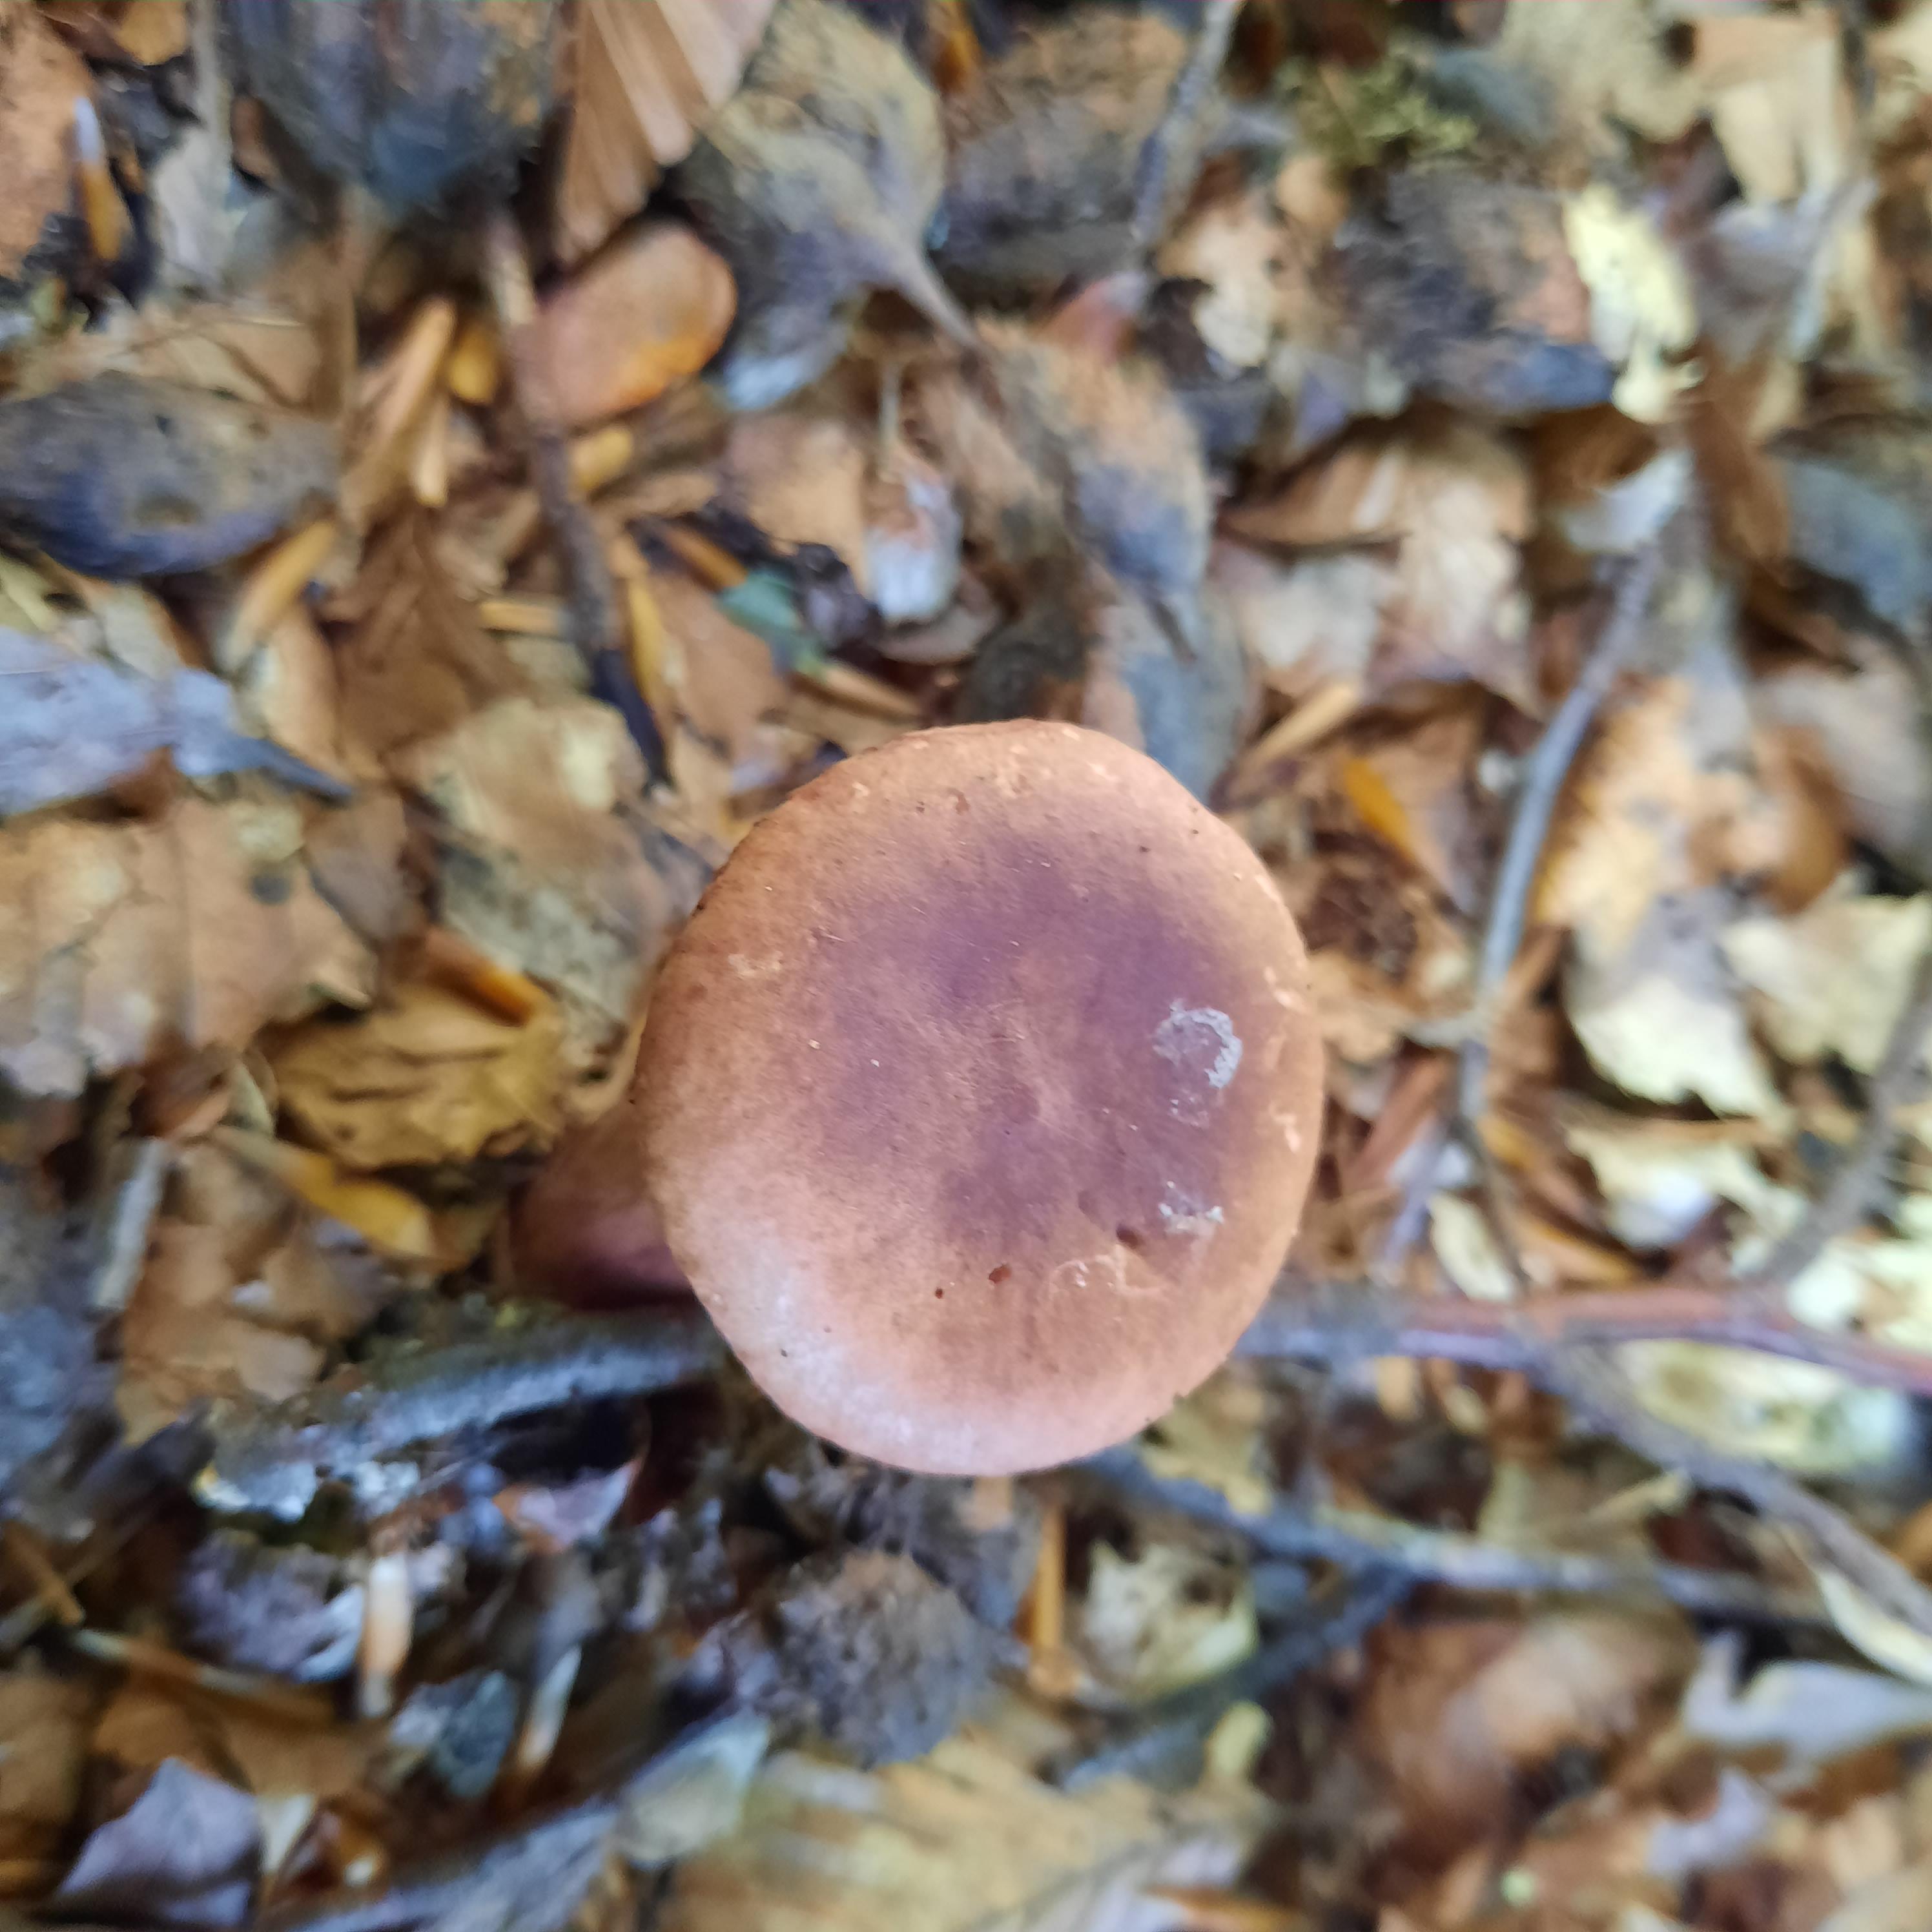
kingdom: Fungi
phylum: Basidiomycota
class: Agaricomycetes
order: Russulales
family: Russulaceae
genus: Lactarius
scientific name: Lactarius
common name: mælkehat
